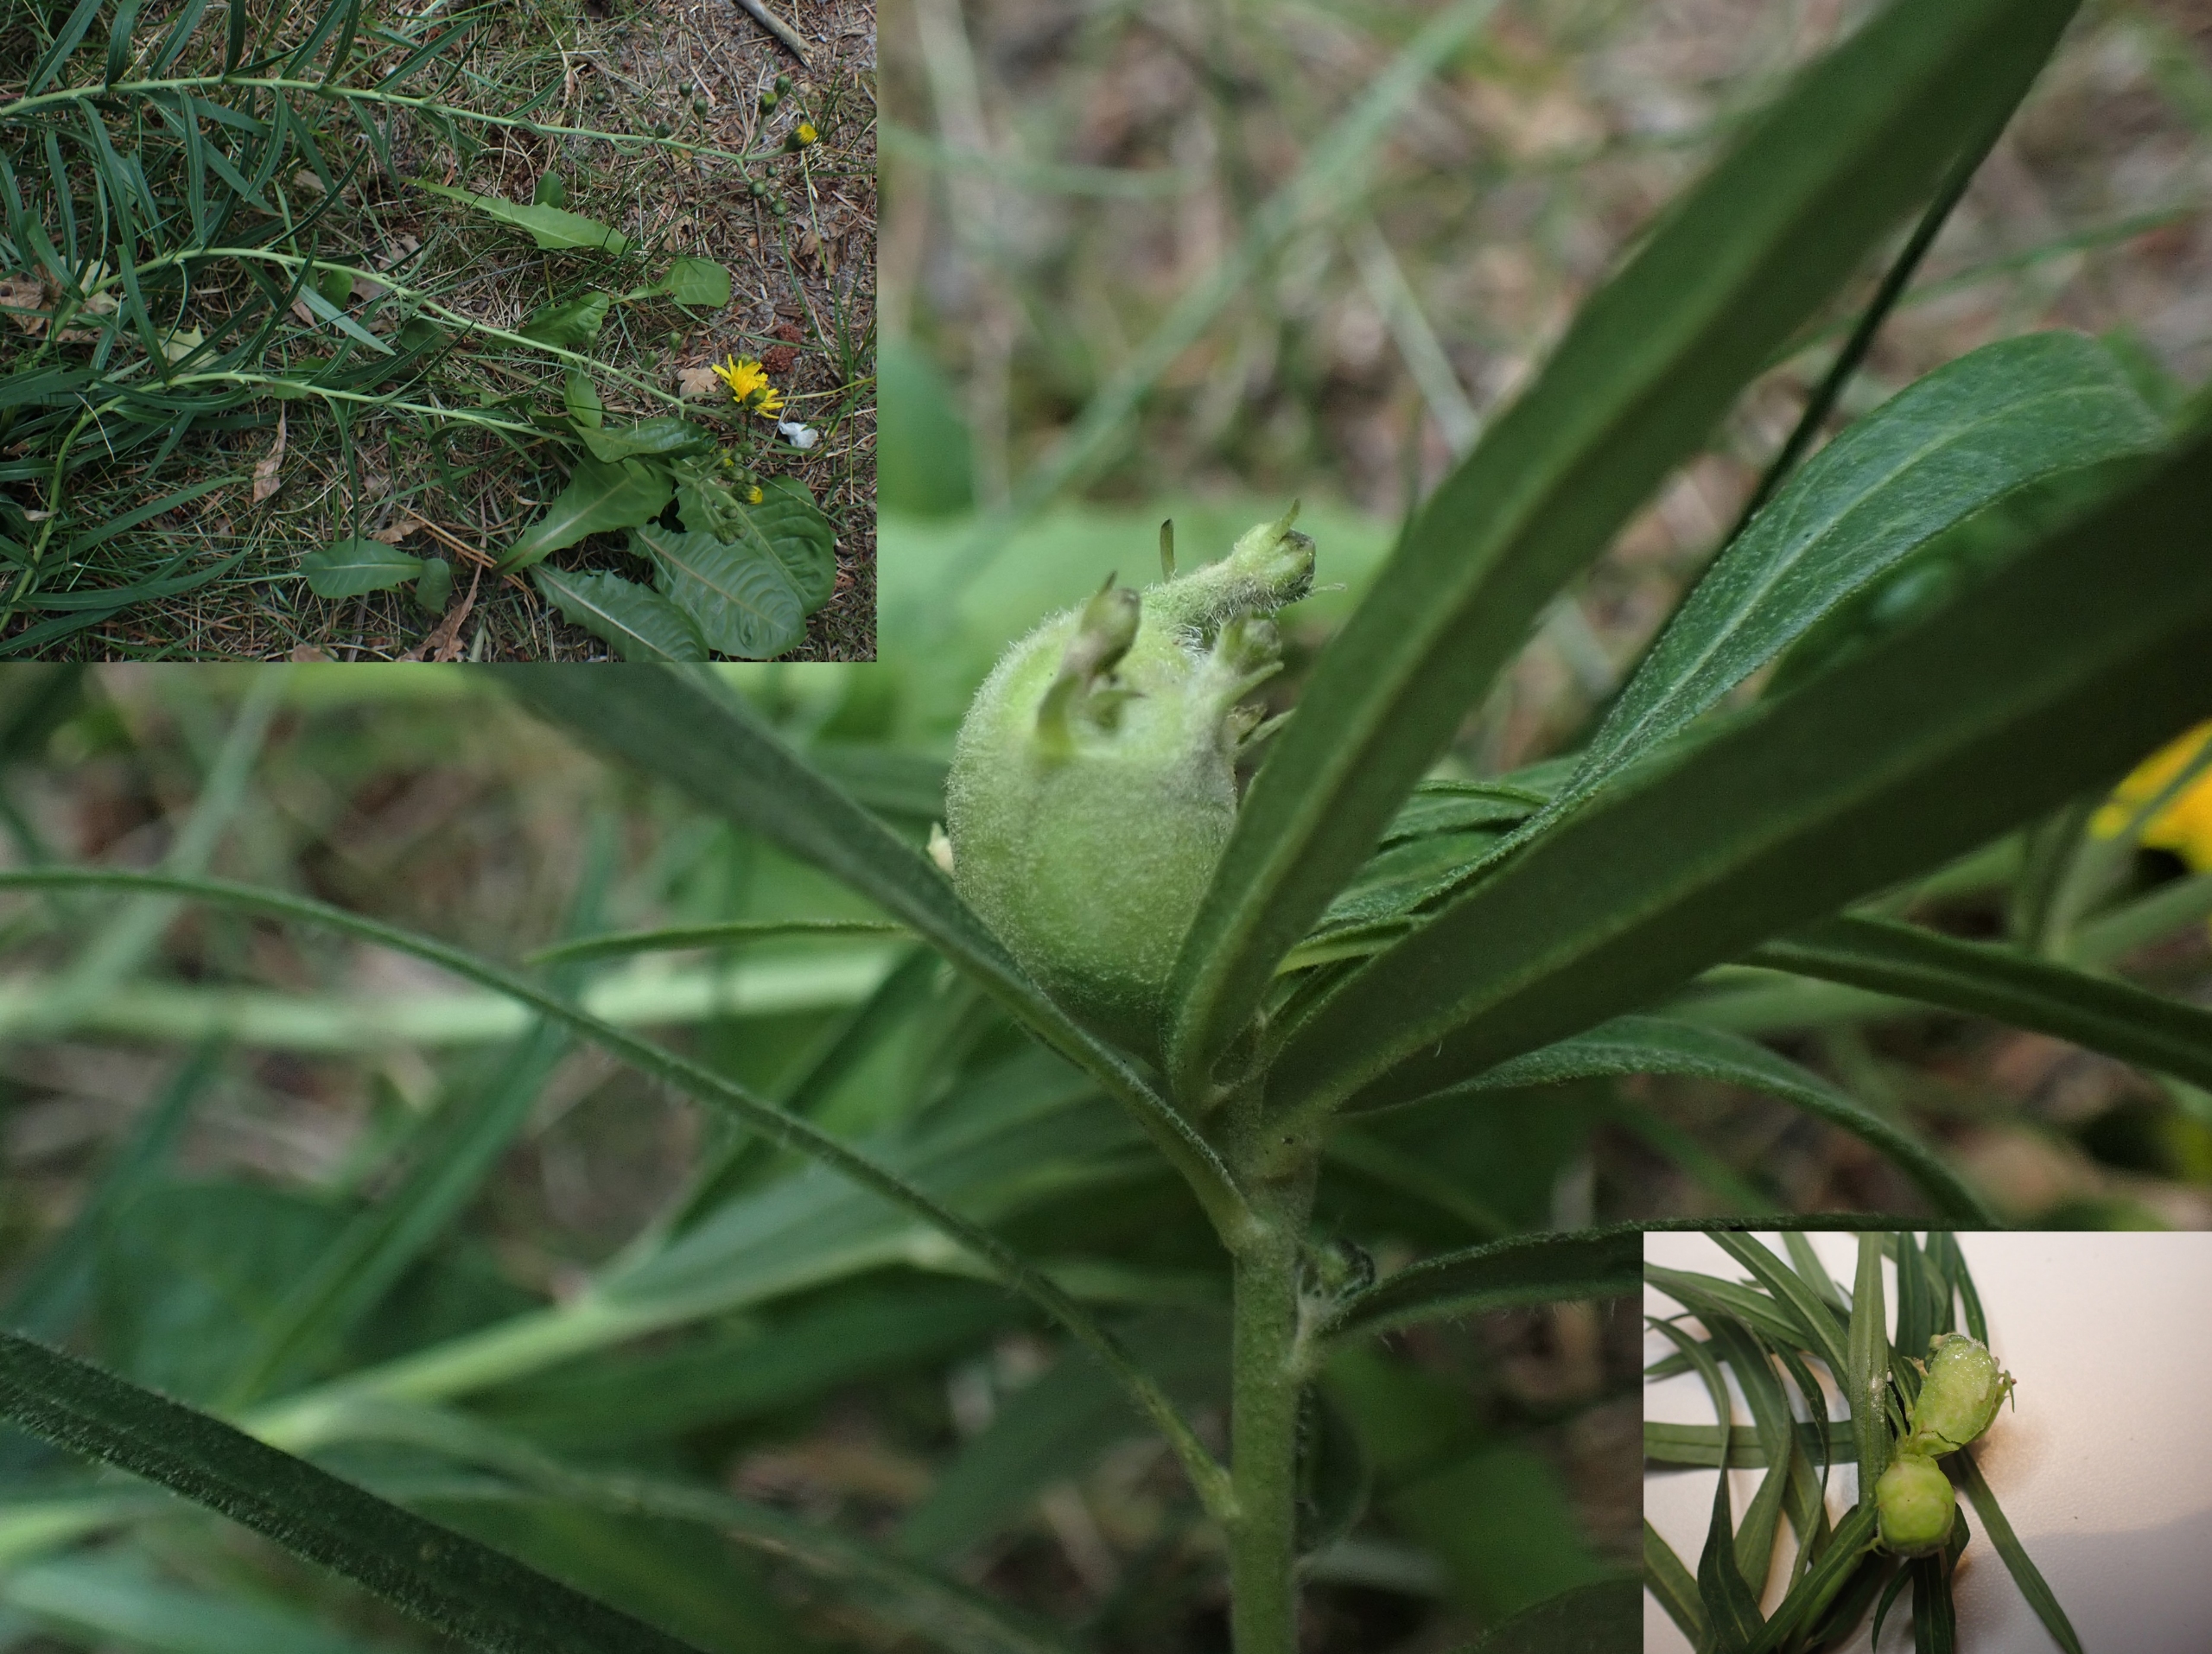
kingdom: Animalia
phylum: Arthropoda
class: Insecta
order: Hymenoptera
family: Cynipidae
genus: Aulacidea
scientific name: Aulacidea hieracii
